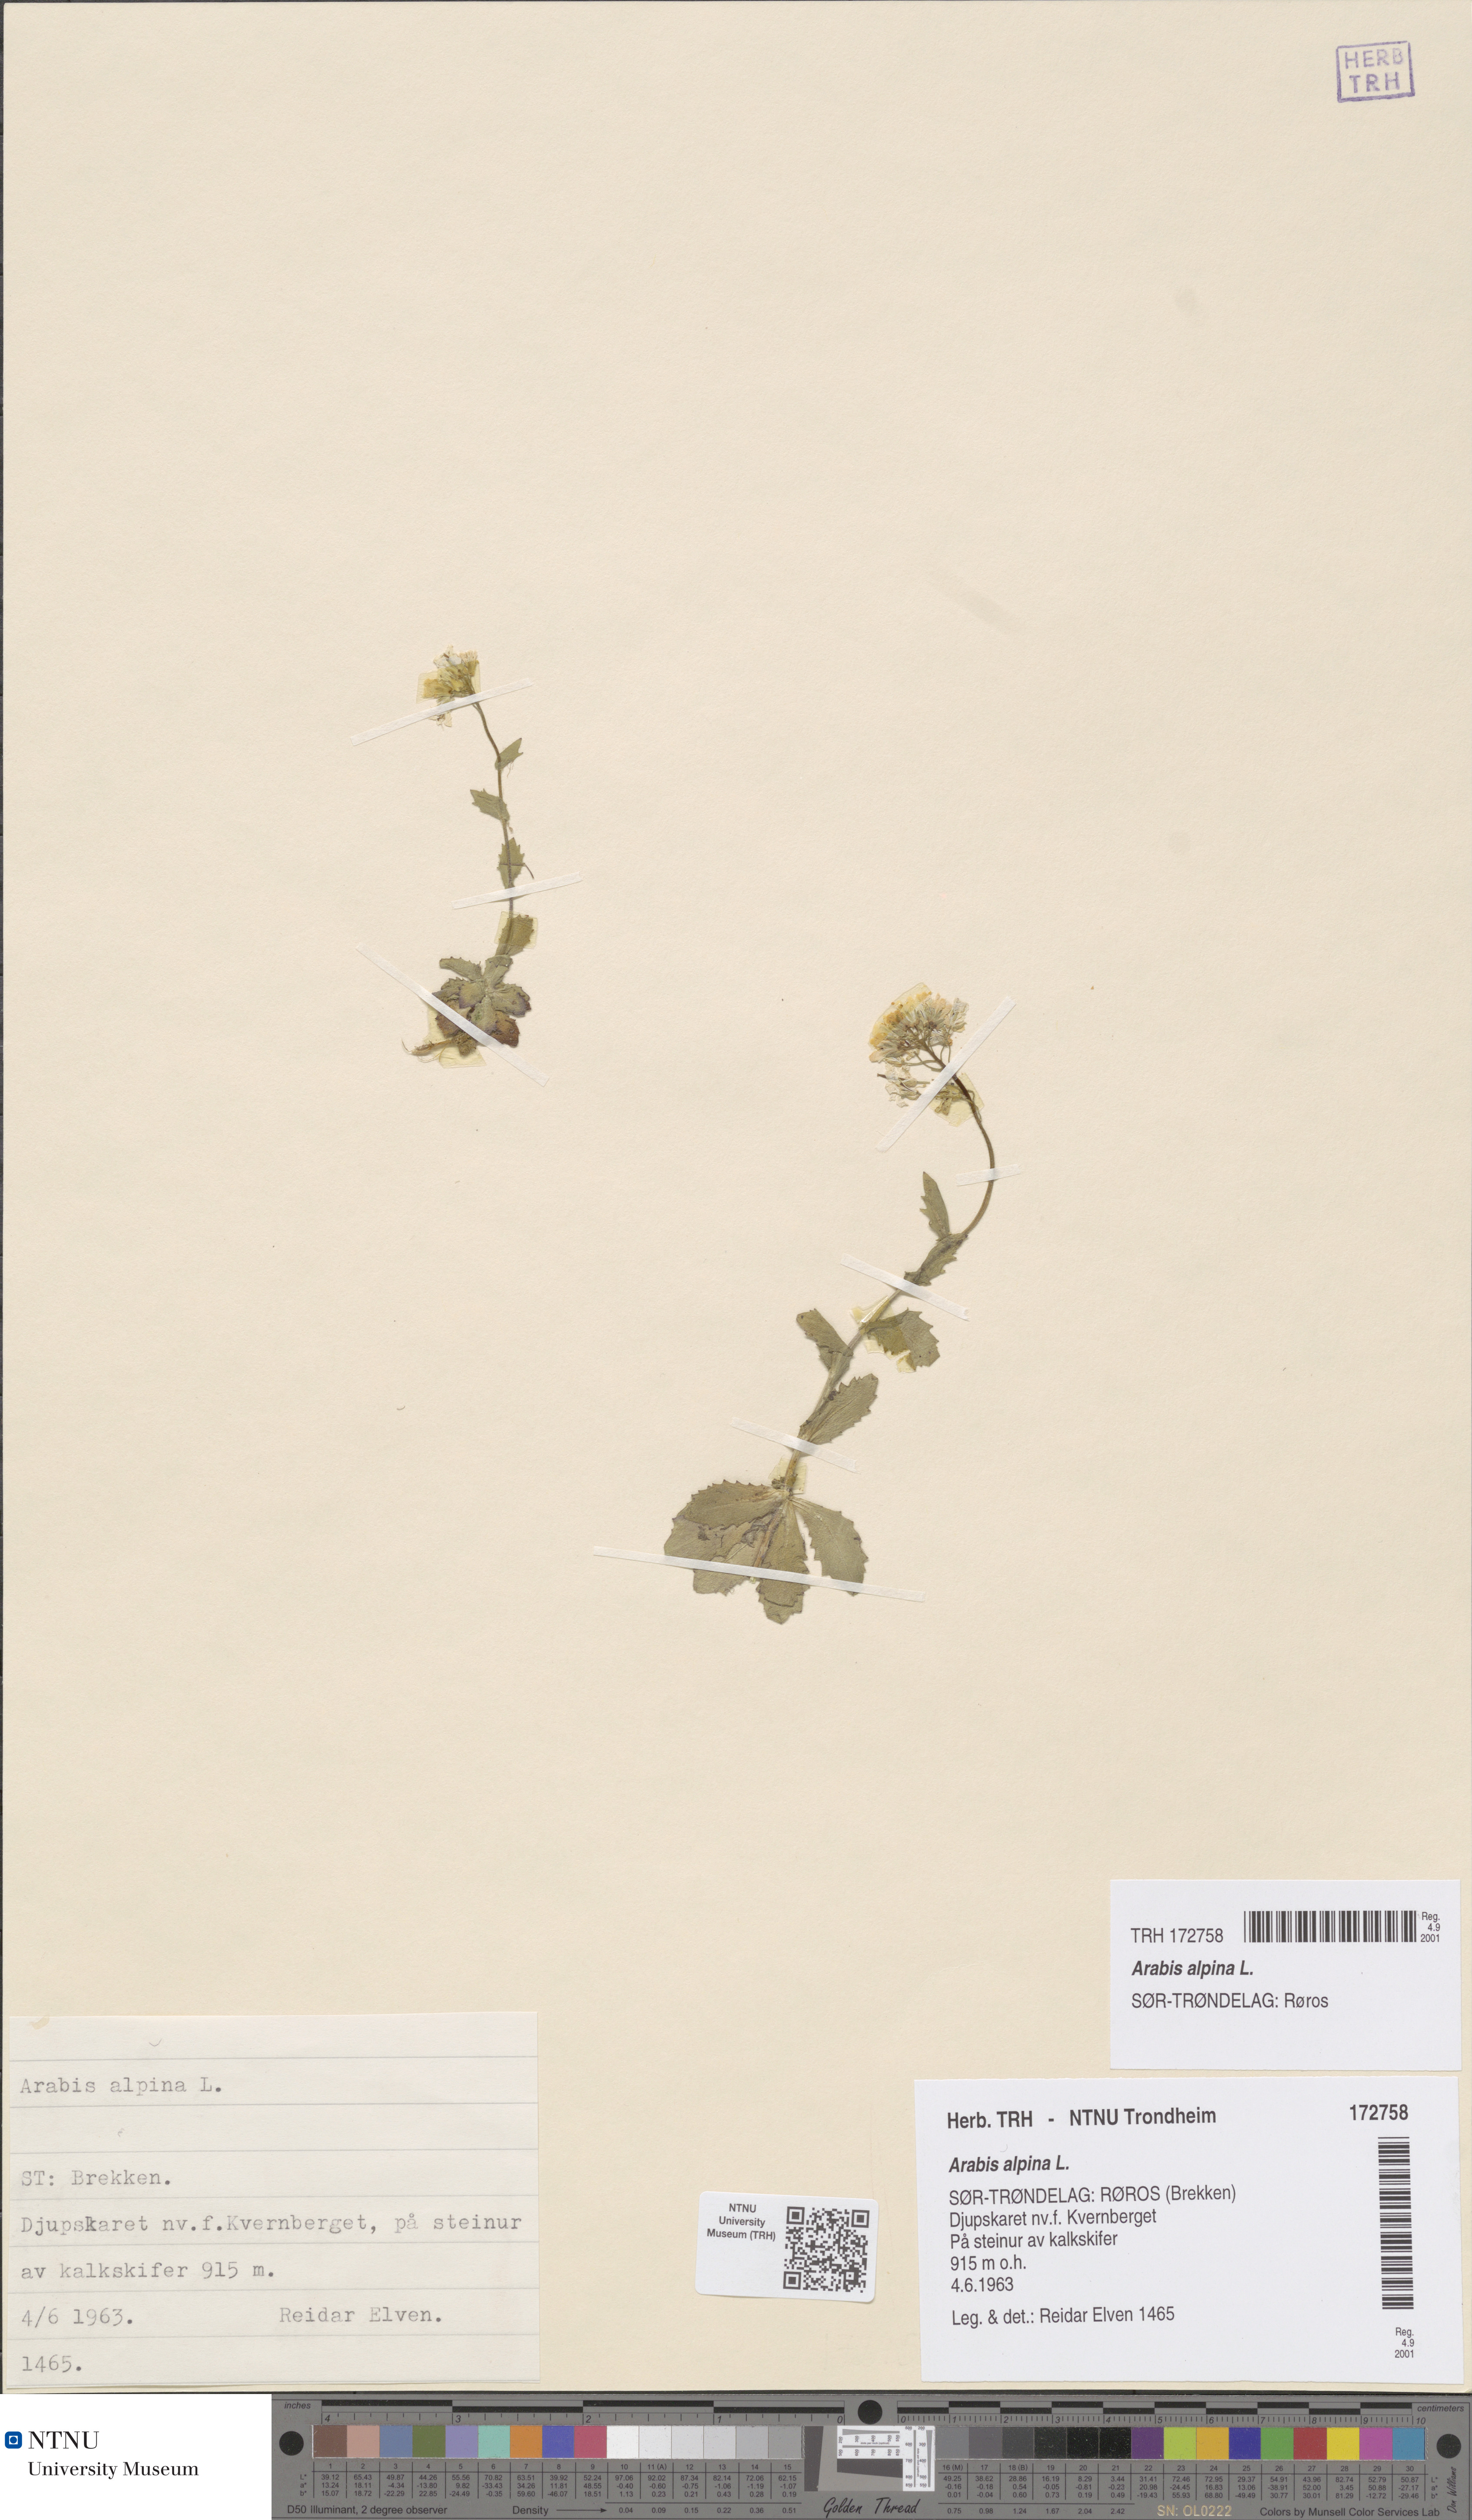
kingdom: Plantae
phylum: Tracheophyta
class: Magnoliopsida
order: Brassicales
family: Brassicaceae
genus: Arabis
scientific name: Arabis alpina
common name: Alpine rock-cress
